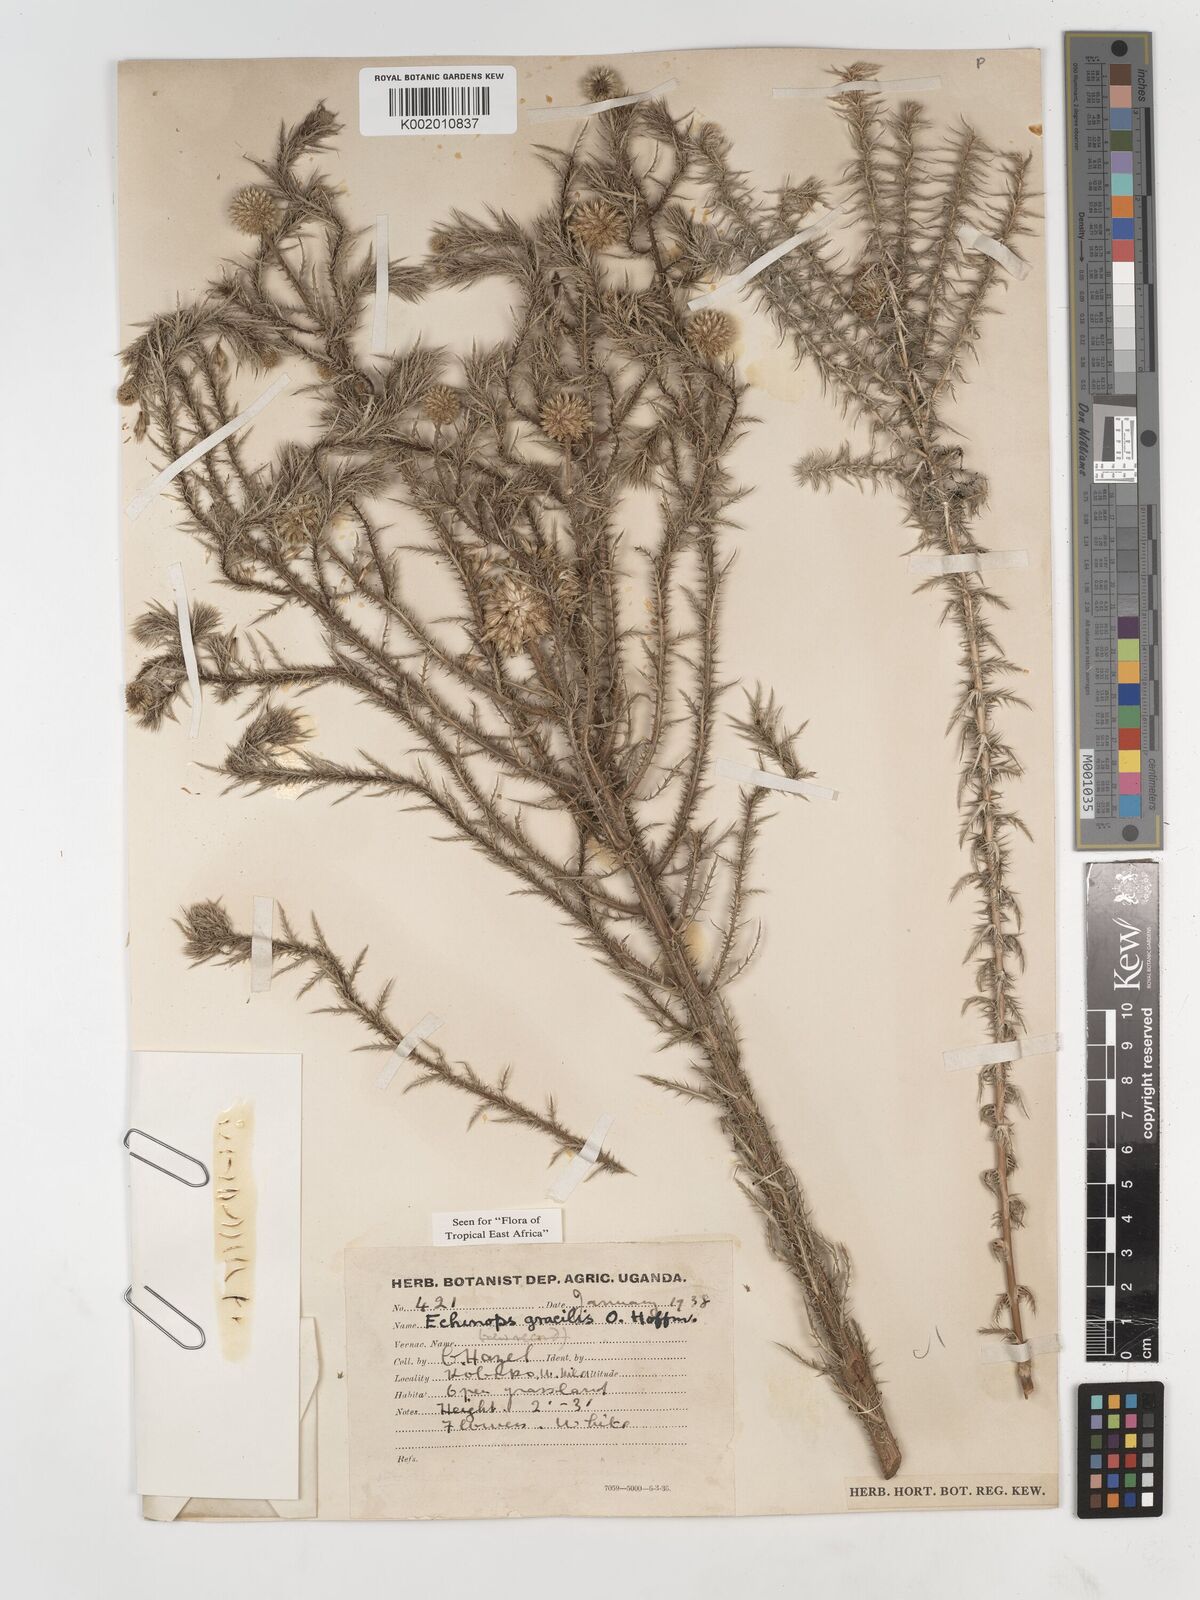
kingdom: Plantae
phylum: Tracheophyta
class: Magnoliopsida
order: Asterales
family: Asteraceae
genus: Echinops
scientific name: Echinops gracilis
